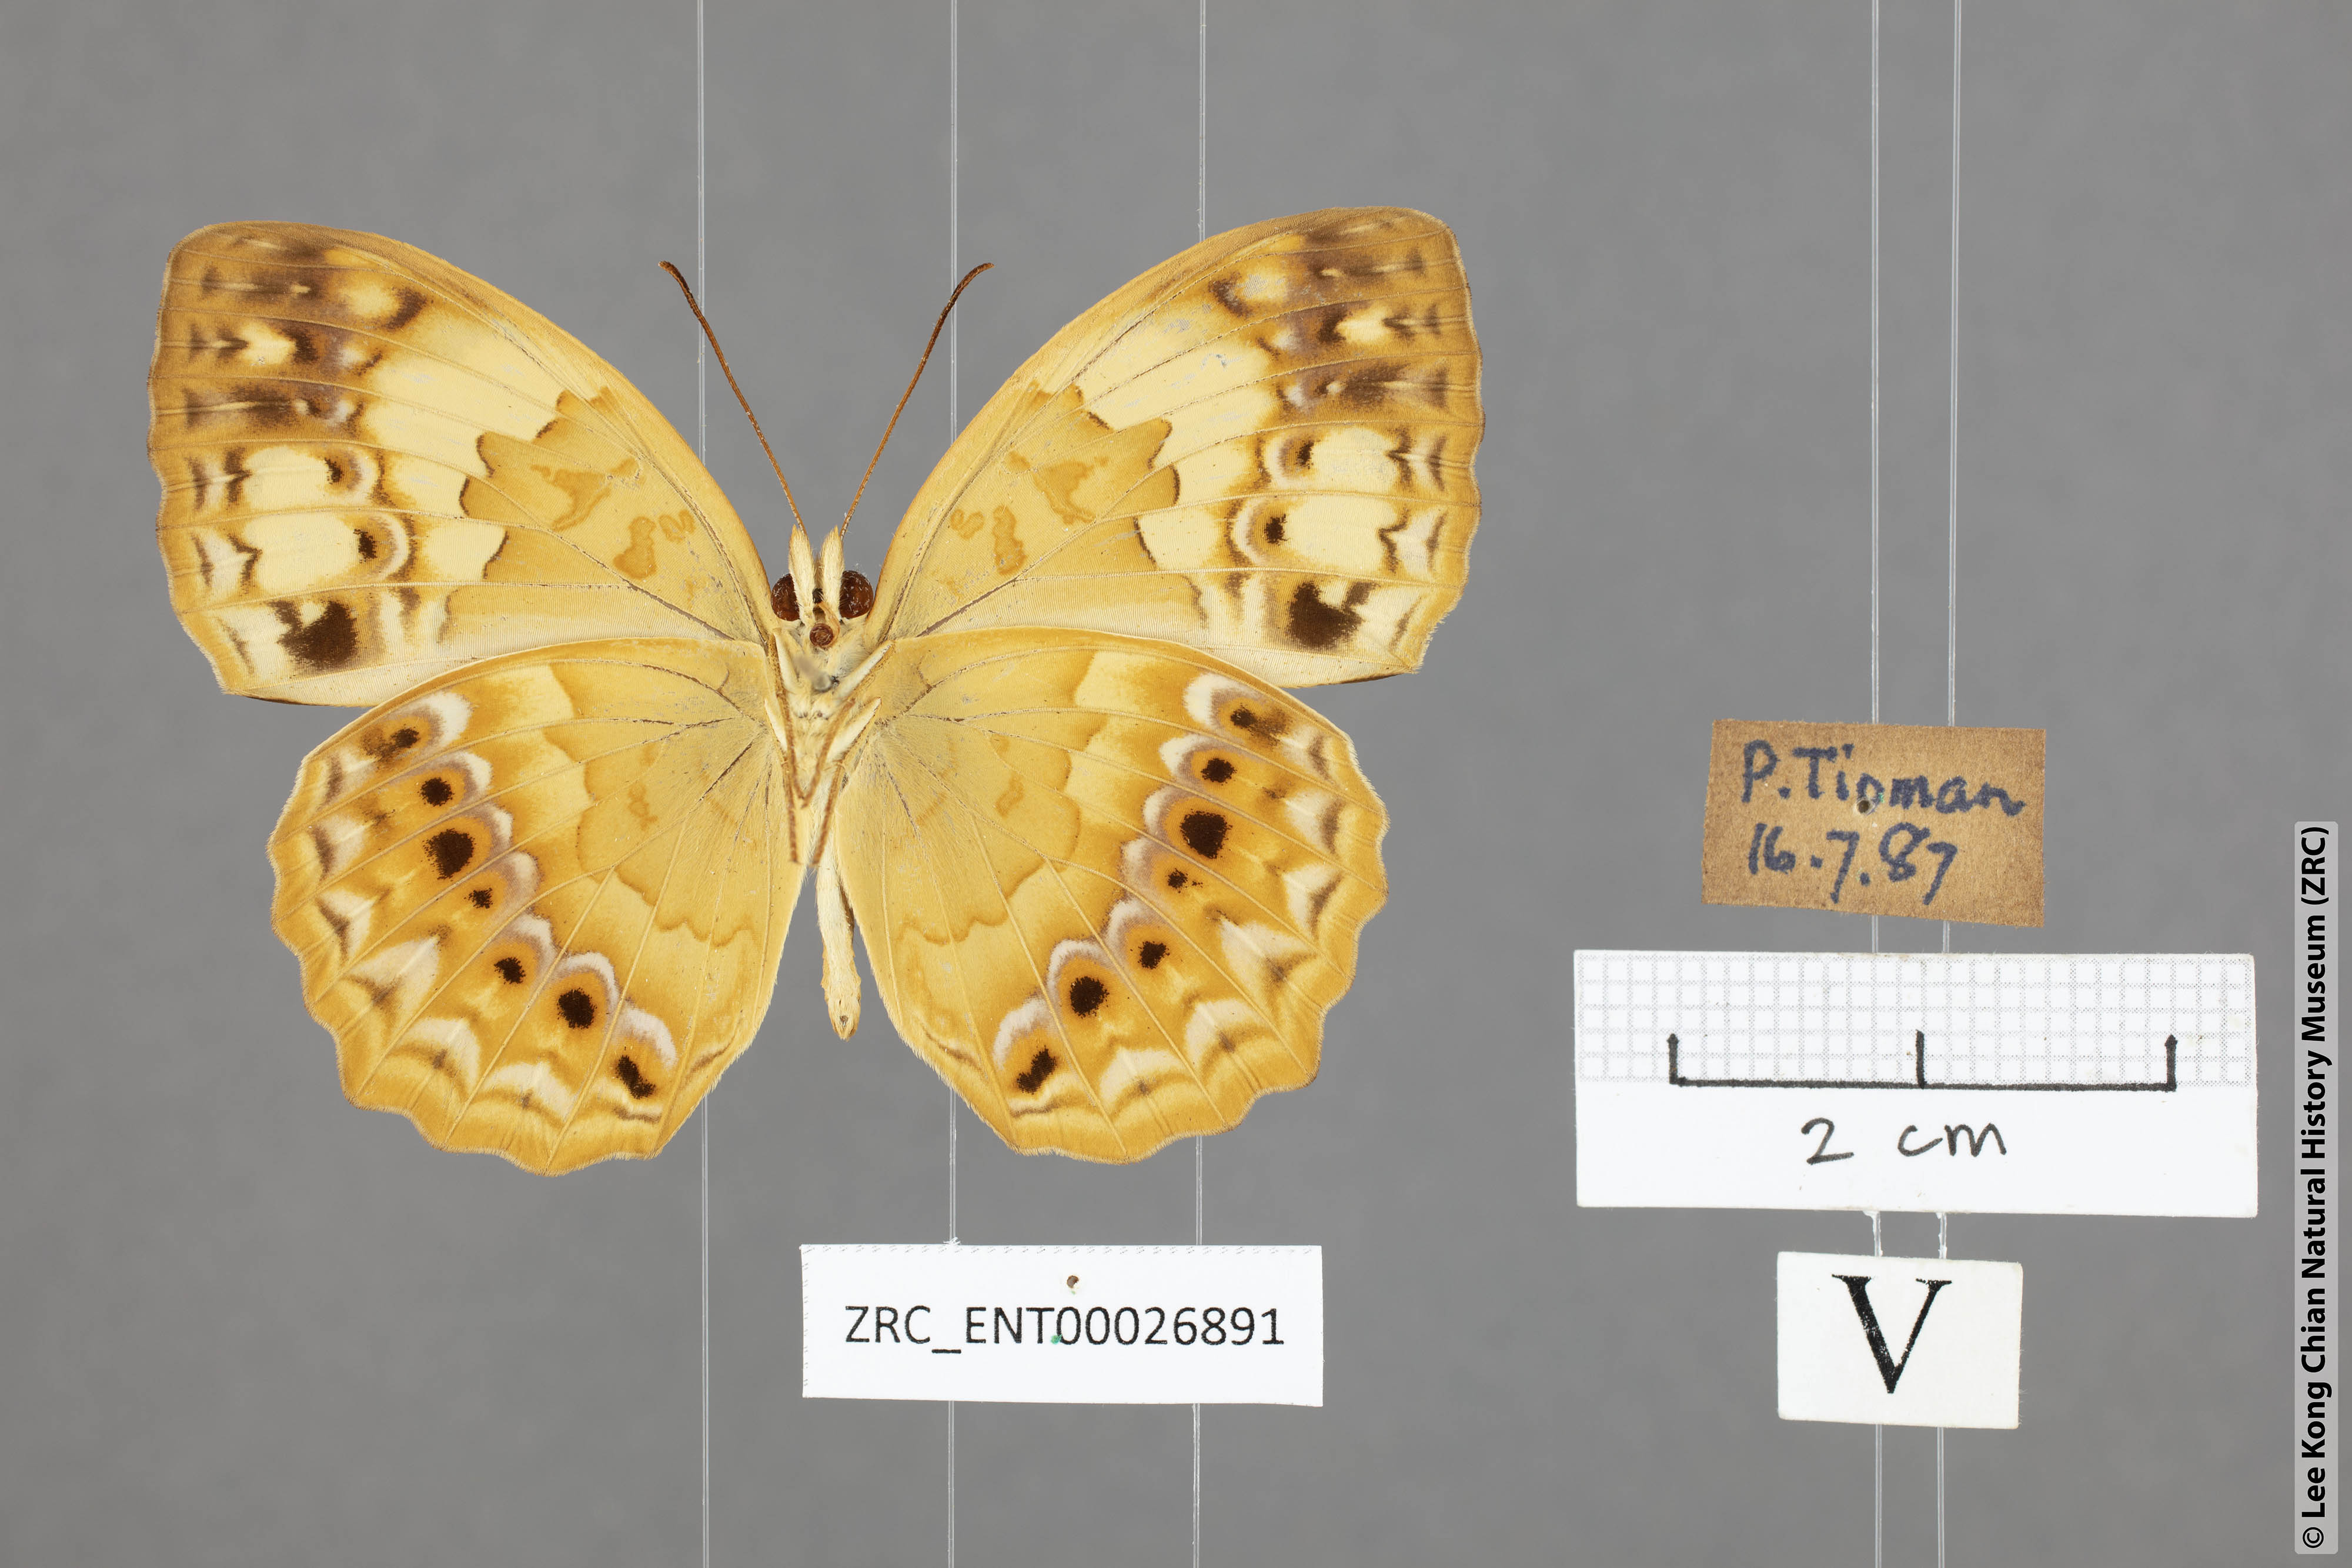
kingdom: Animalia
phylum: Arthropoda
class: Insecta
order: Lepidoptera
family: Nymphalidae
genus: Cupha
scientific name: Cupha erymanthis
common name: Rustic
